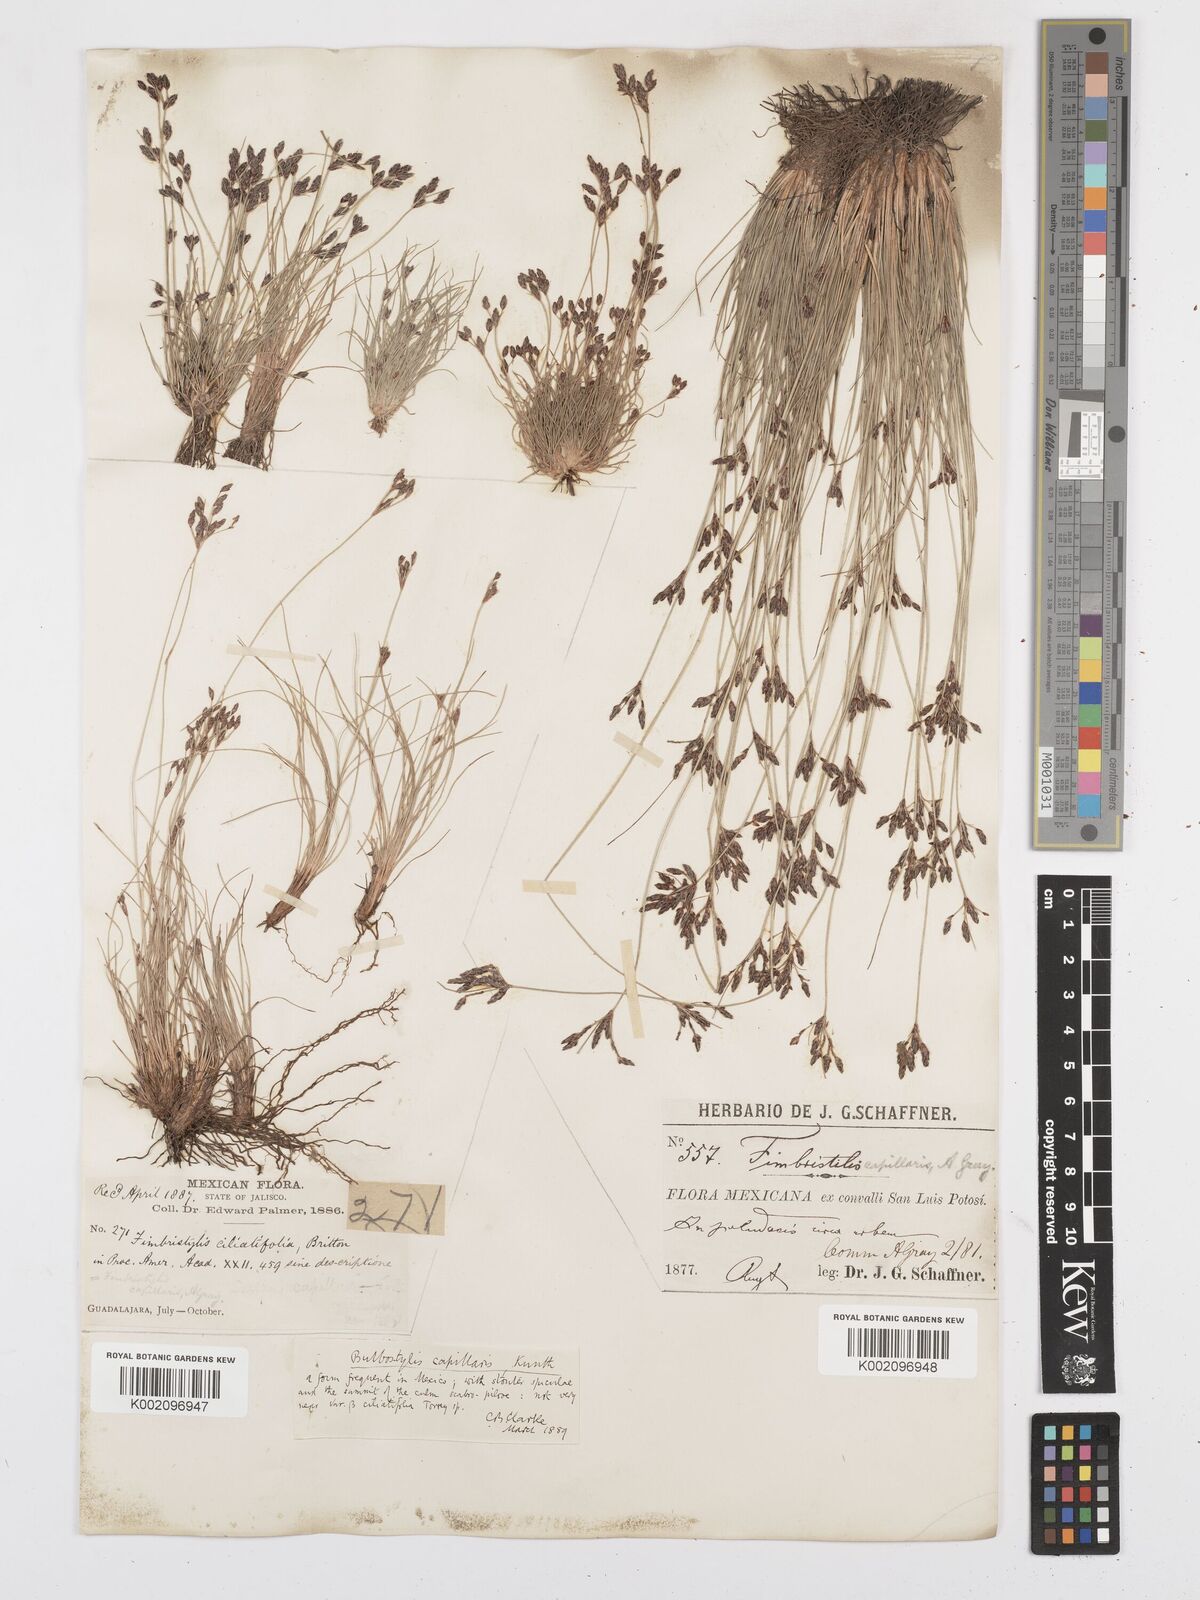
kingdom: Plantae
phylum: Tracheophyta
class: Liliopsida
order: Poales
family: Cyperaceae
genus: Bulbostylis
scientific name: Bulbostylis capillaris
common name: Densetuft hairsedge
